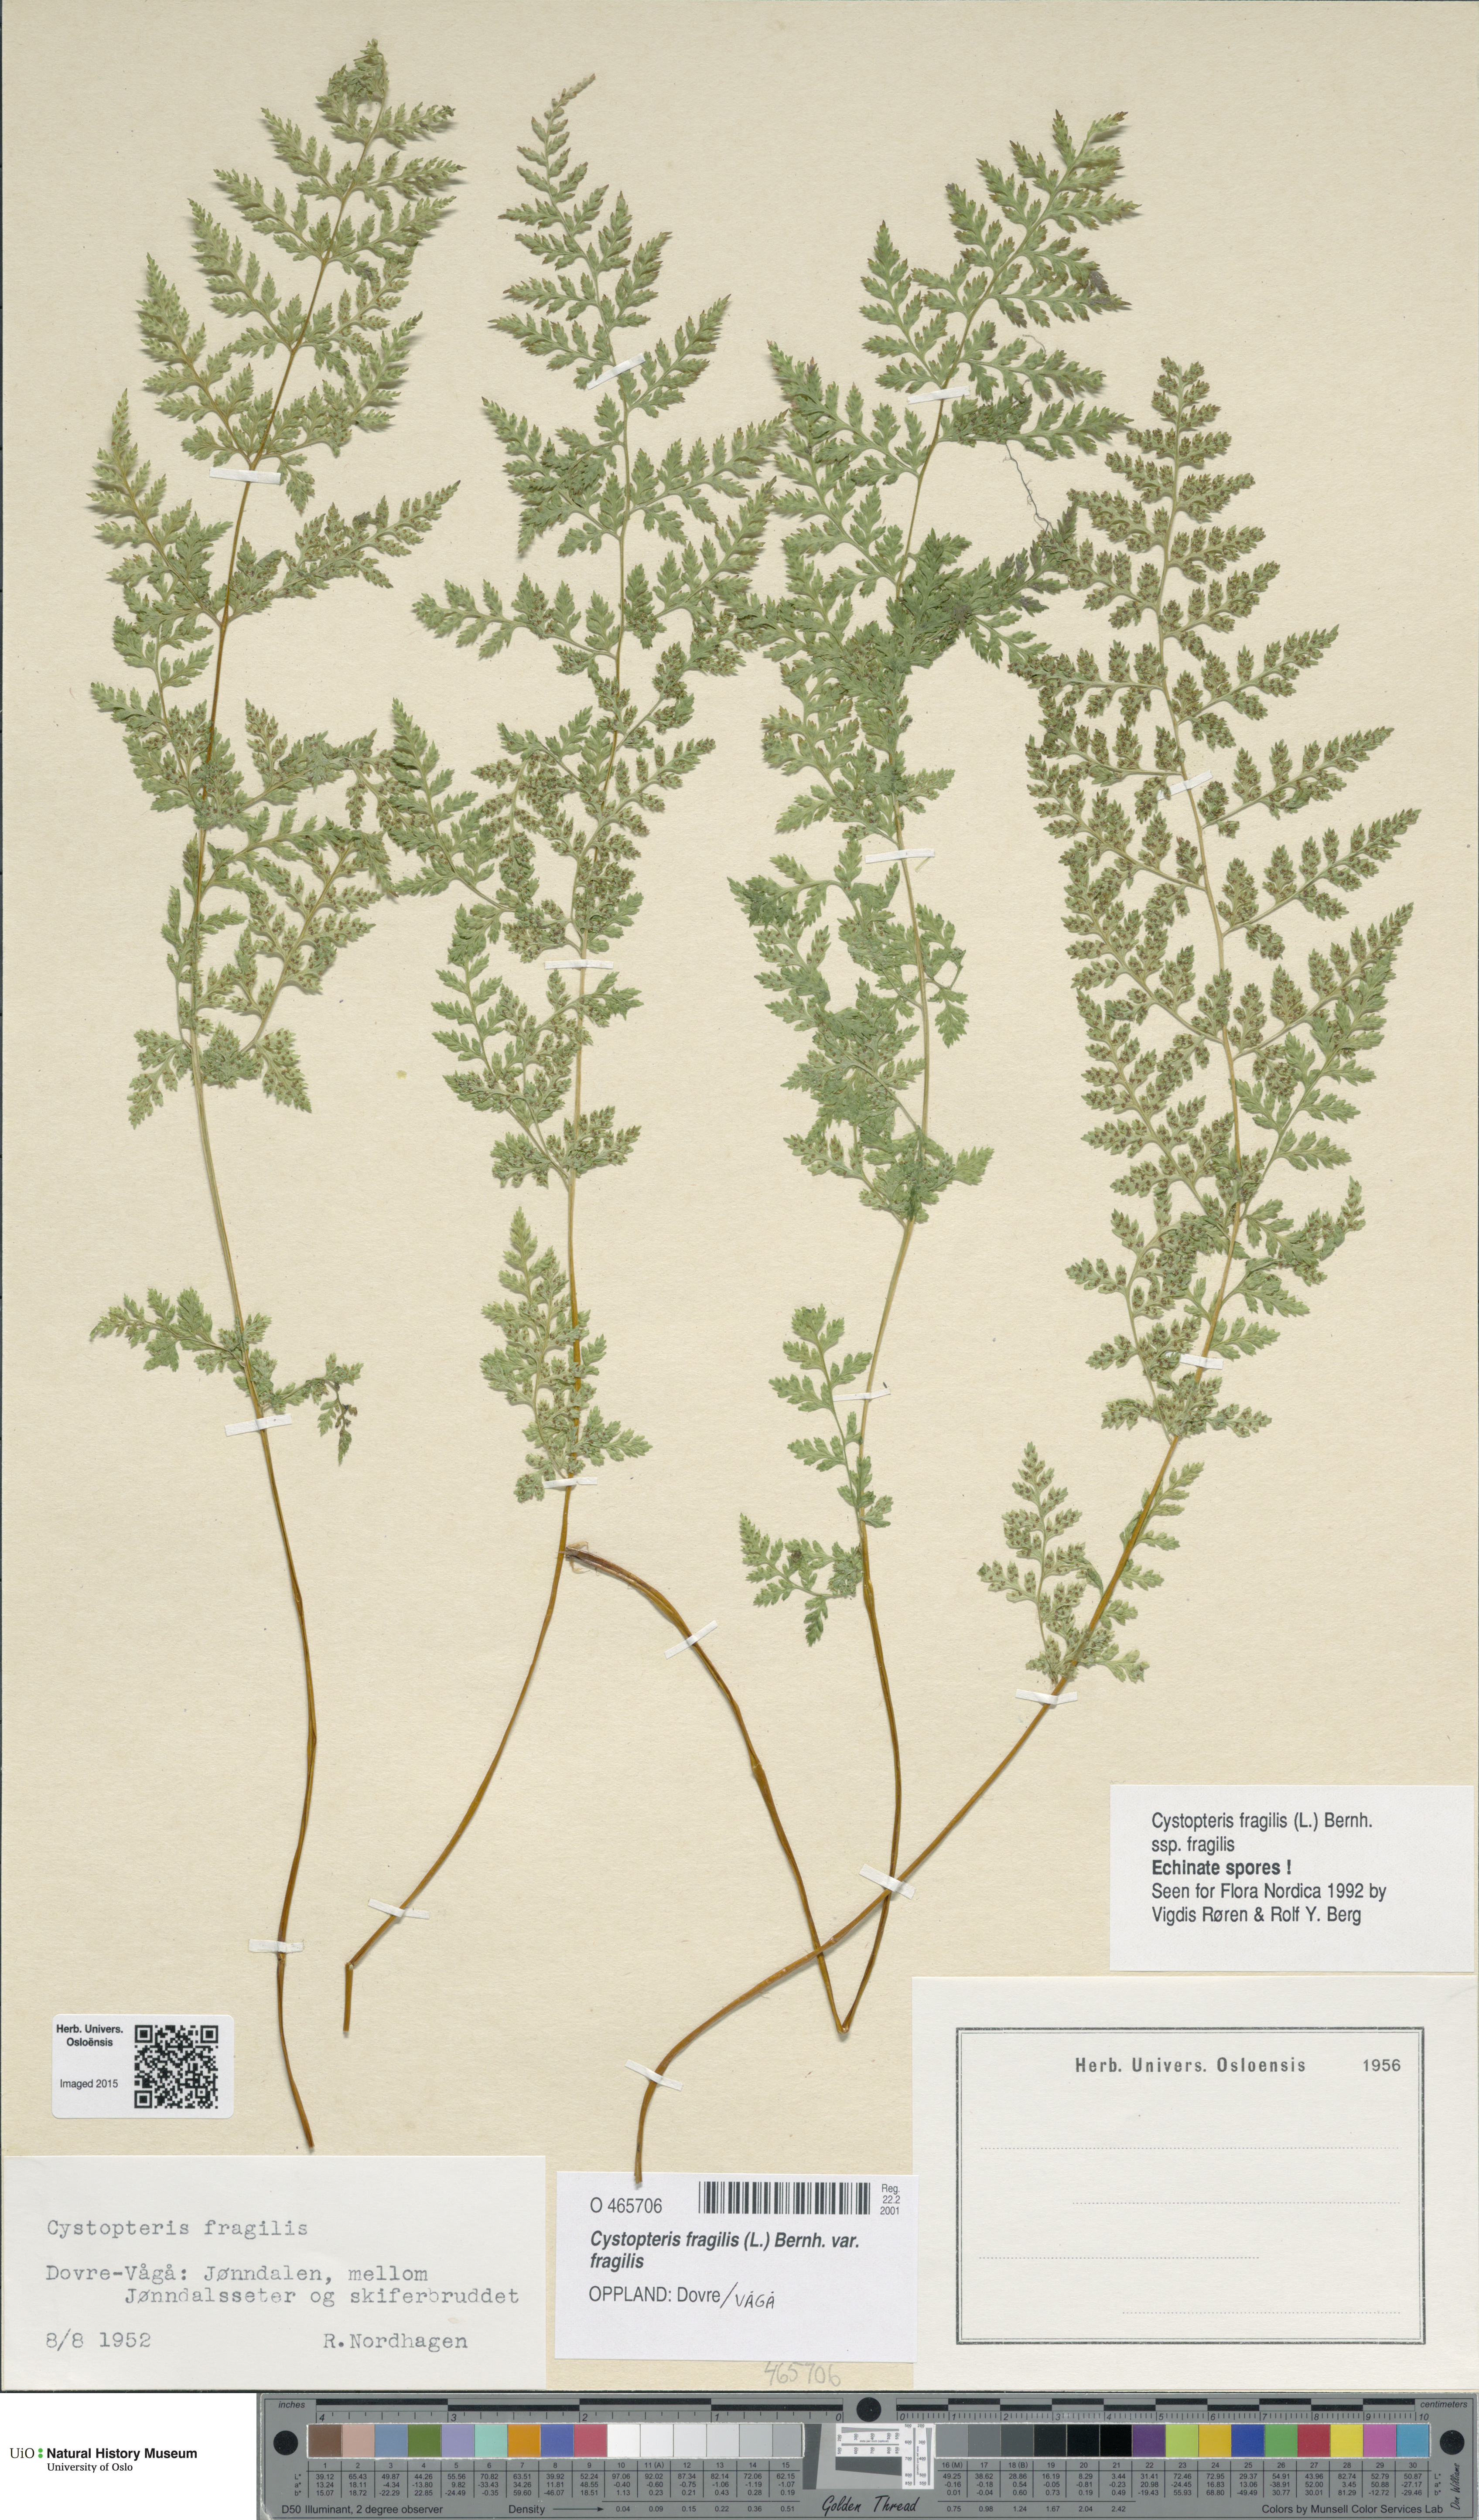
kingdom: Plantae
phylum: Tracheophyta
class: Polypodiopsida
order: Polypodiales
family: Cystopteridaceae
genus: Cystopteris
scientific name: Cystopteris fragilis
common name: Brittle bladder fern
